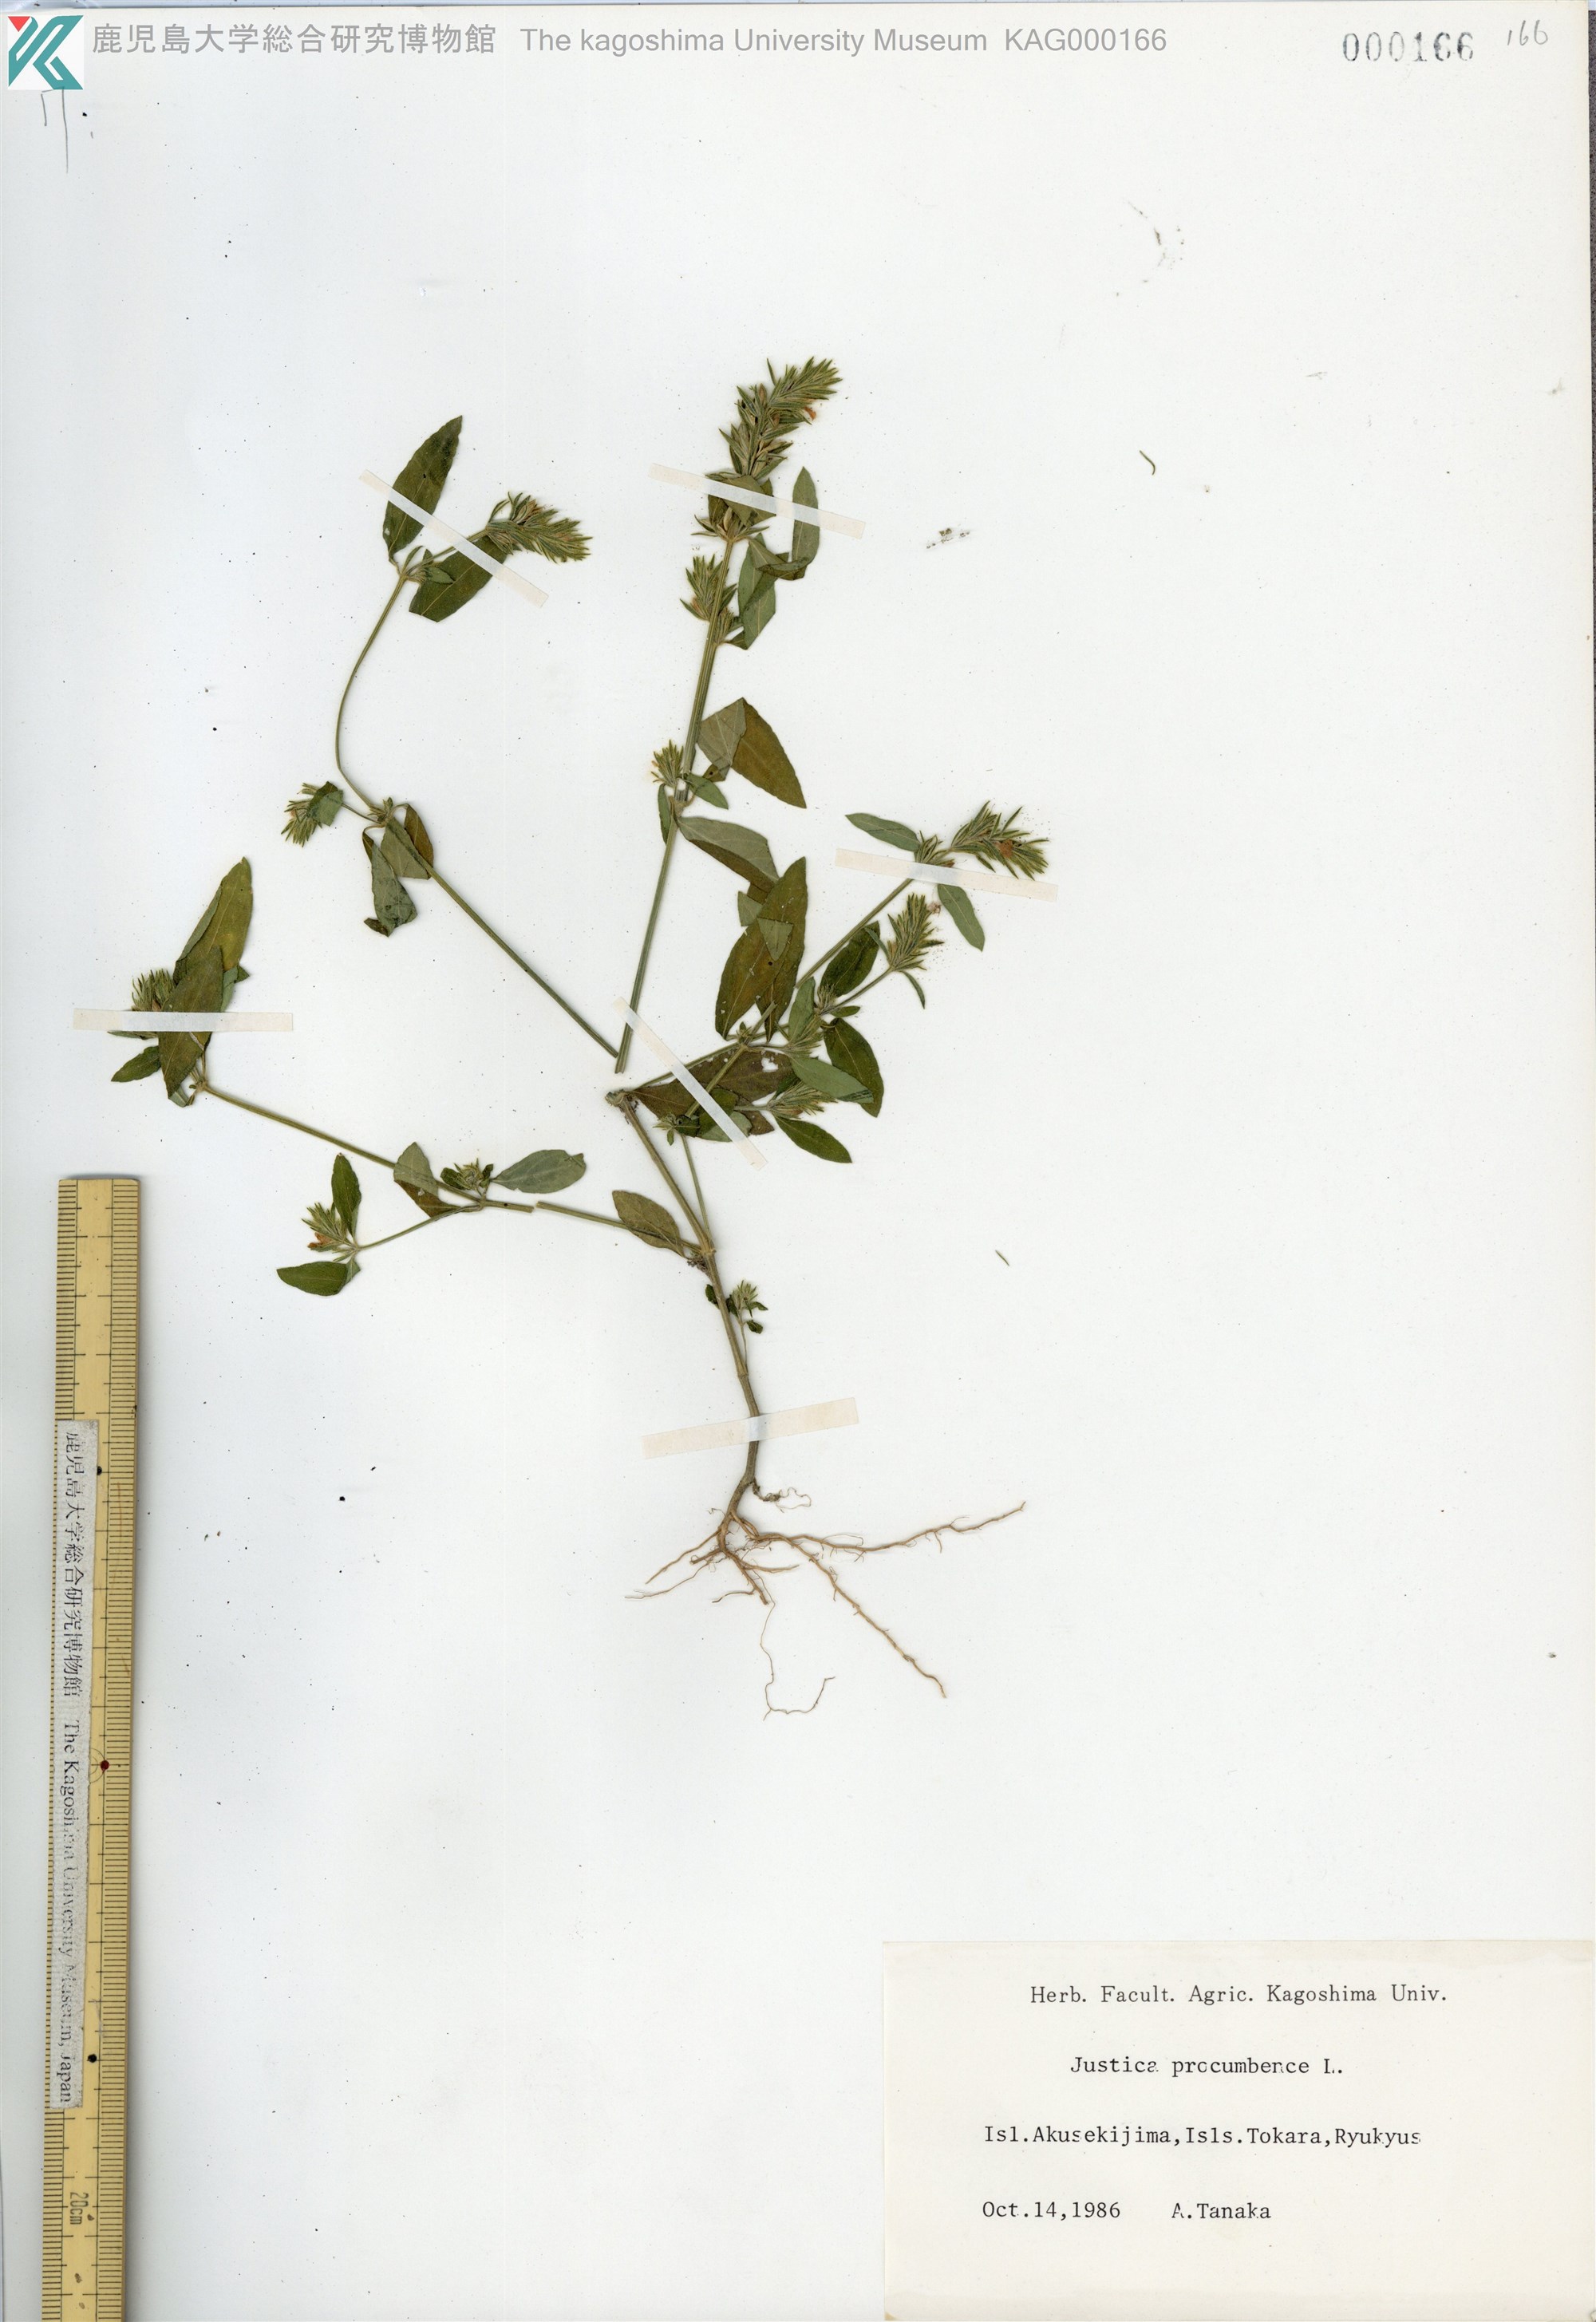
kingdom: Plantae
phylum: Tracheophyta
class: Magnoliopsida
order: Lamiales
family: Acanthaceae
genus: Rostellularia
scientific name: Rostellularia procumbens
